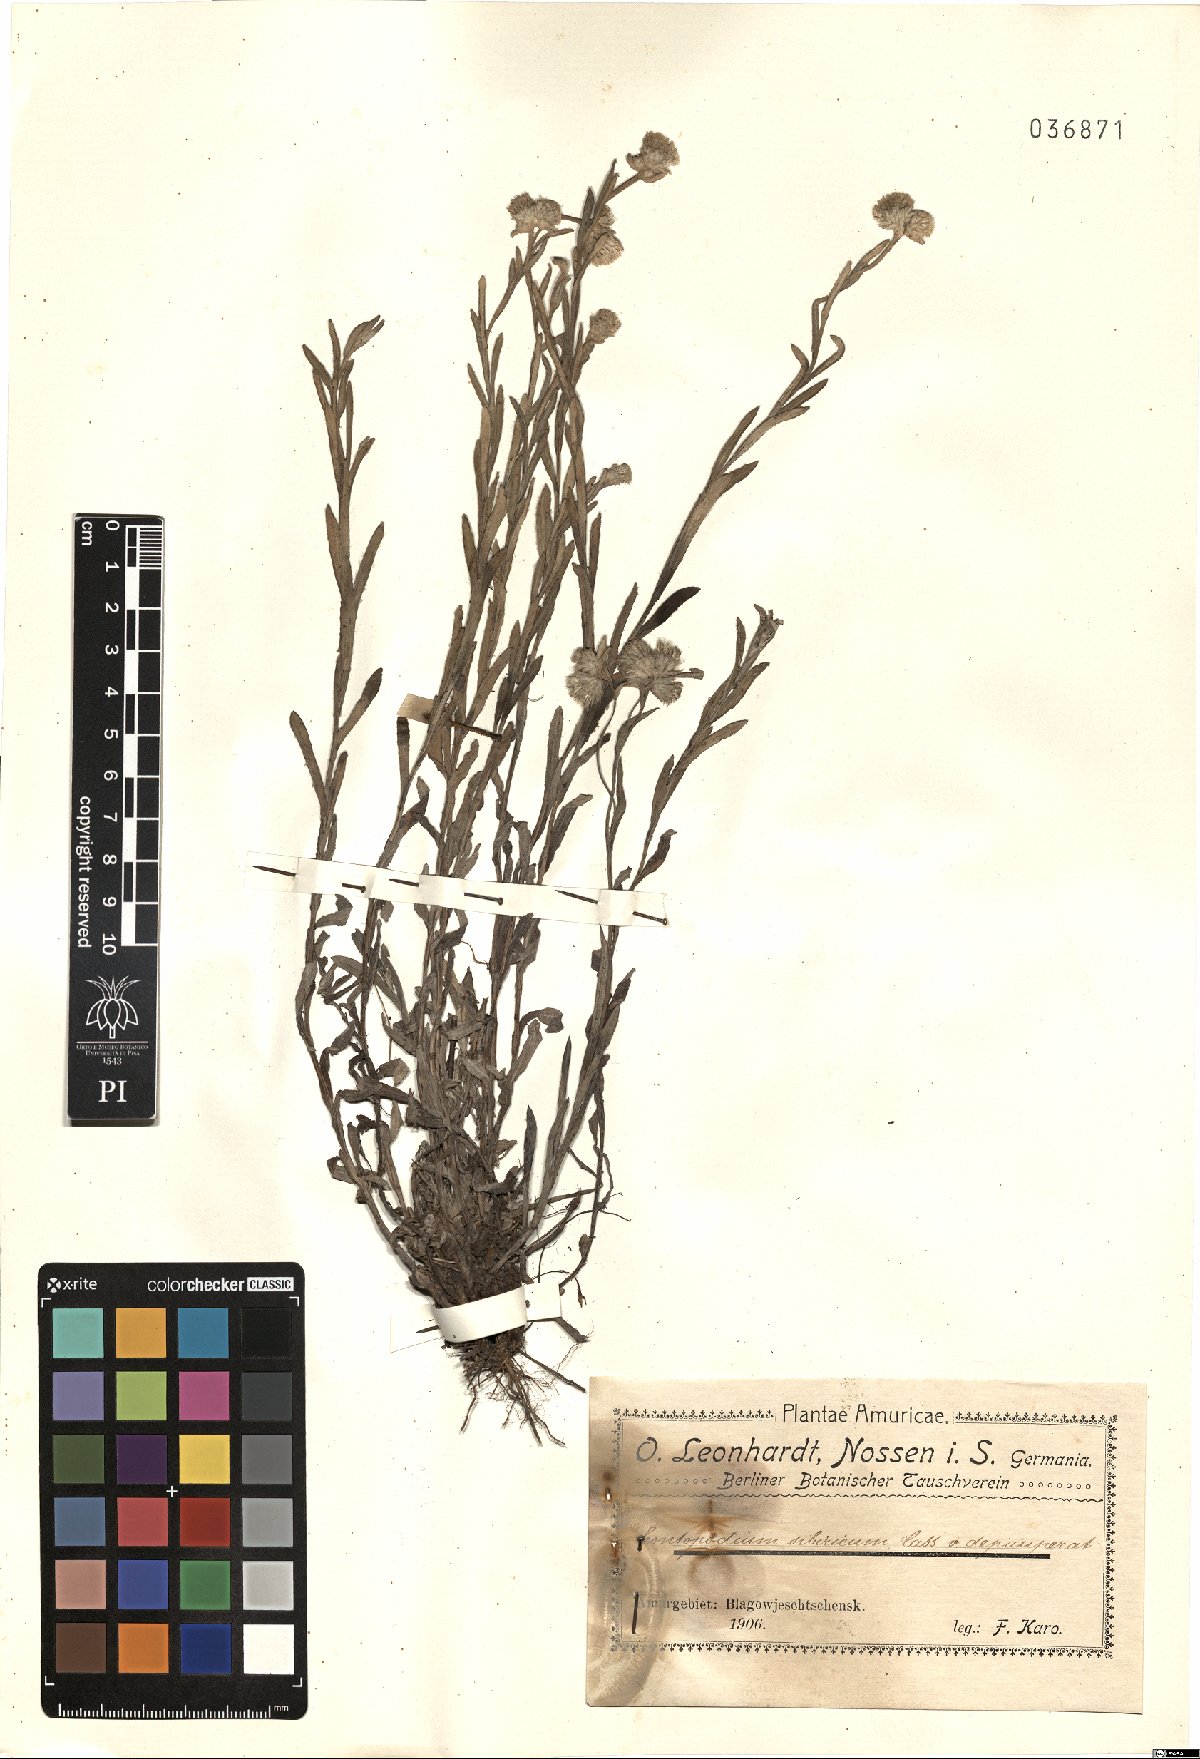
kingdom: Plantae
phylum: Tracheophyta
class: Magnoliopsida
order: Asterales
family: Asteraceae
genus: Leontopodium
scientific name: Leontopodium leontopodioides
